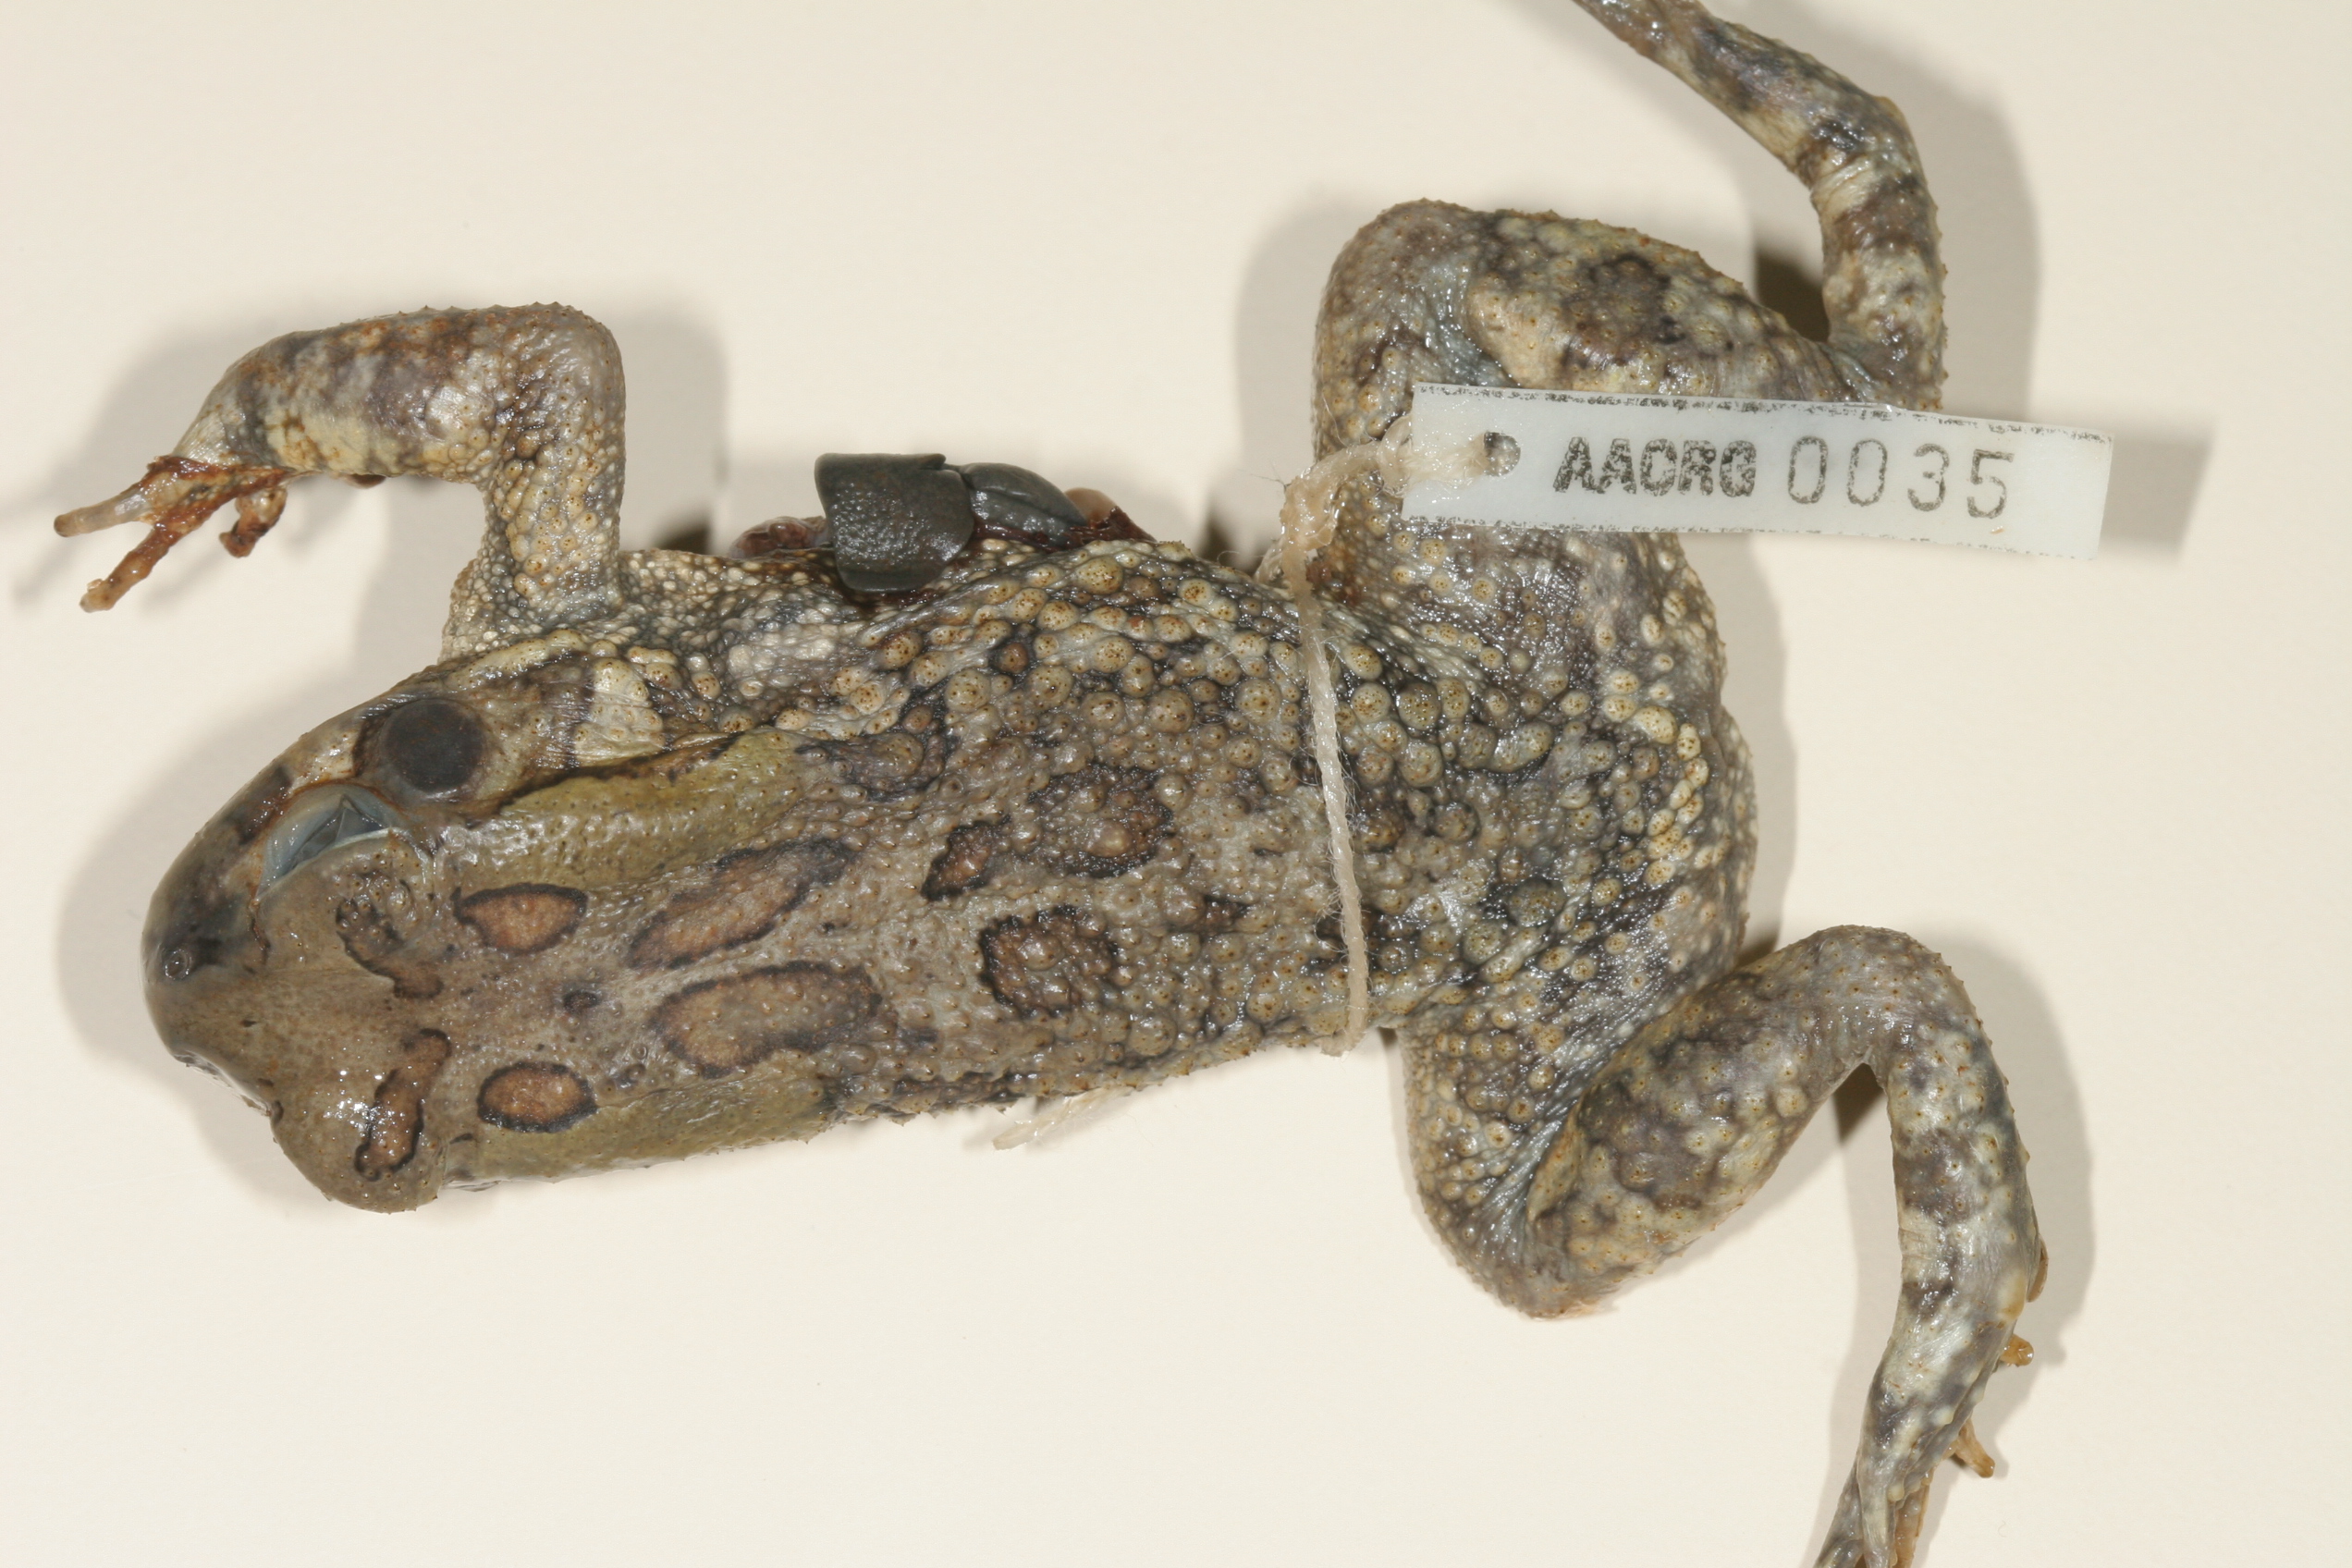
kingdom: Animalia
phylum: Chordata
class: Amphibia
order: Anura
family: Bufonidae
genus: Sclerophrys
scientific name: Sclerophrys garmani
